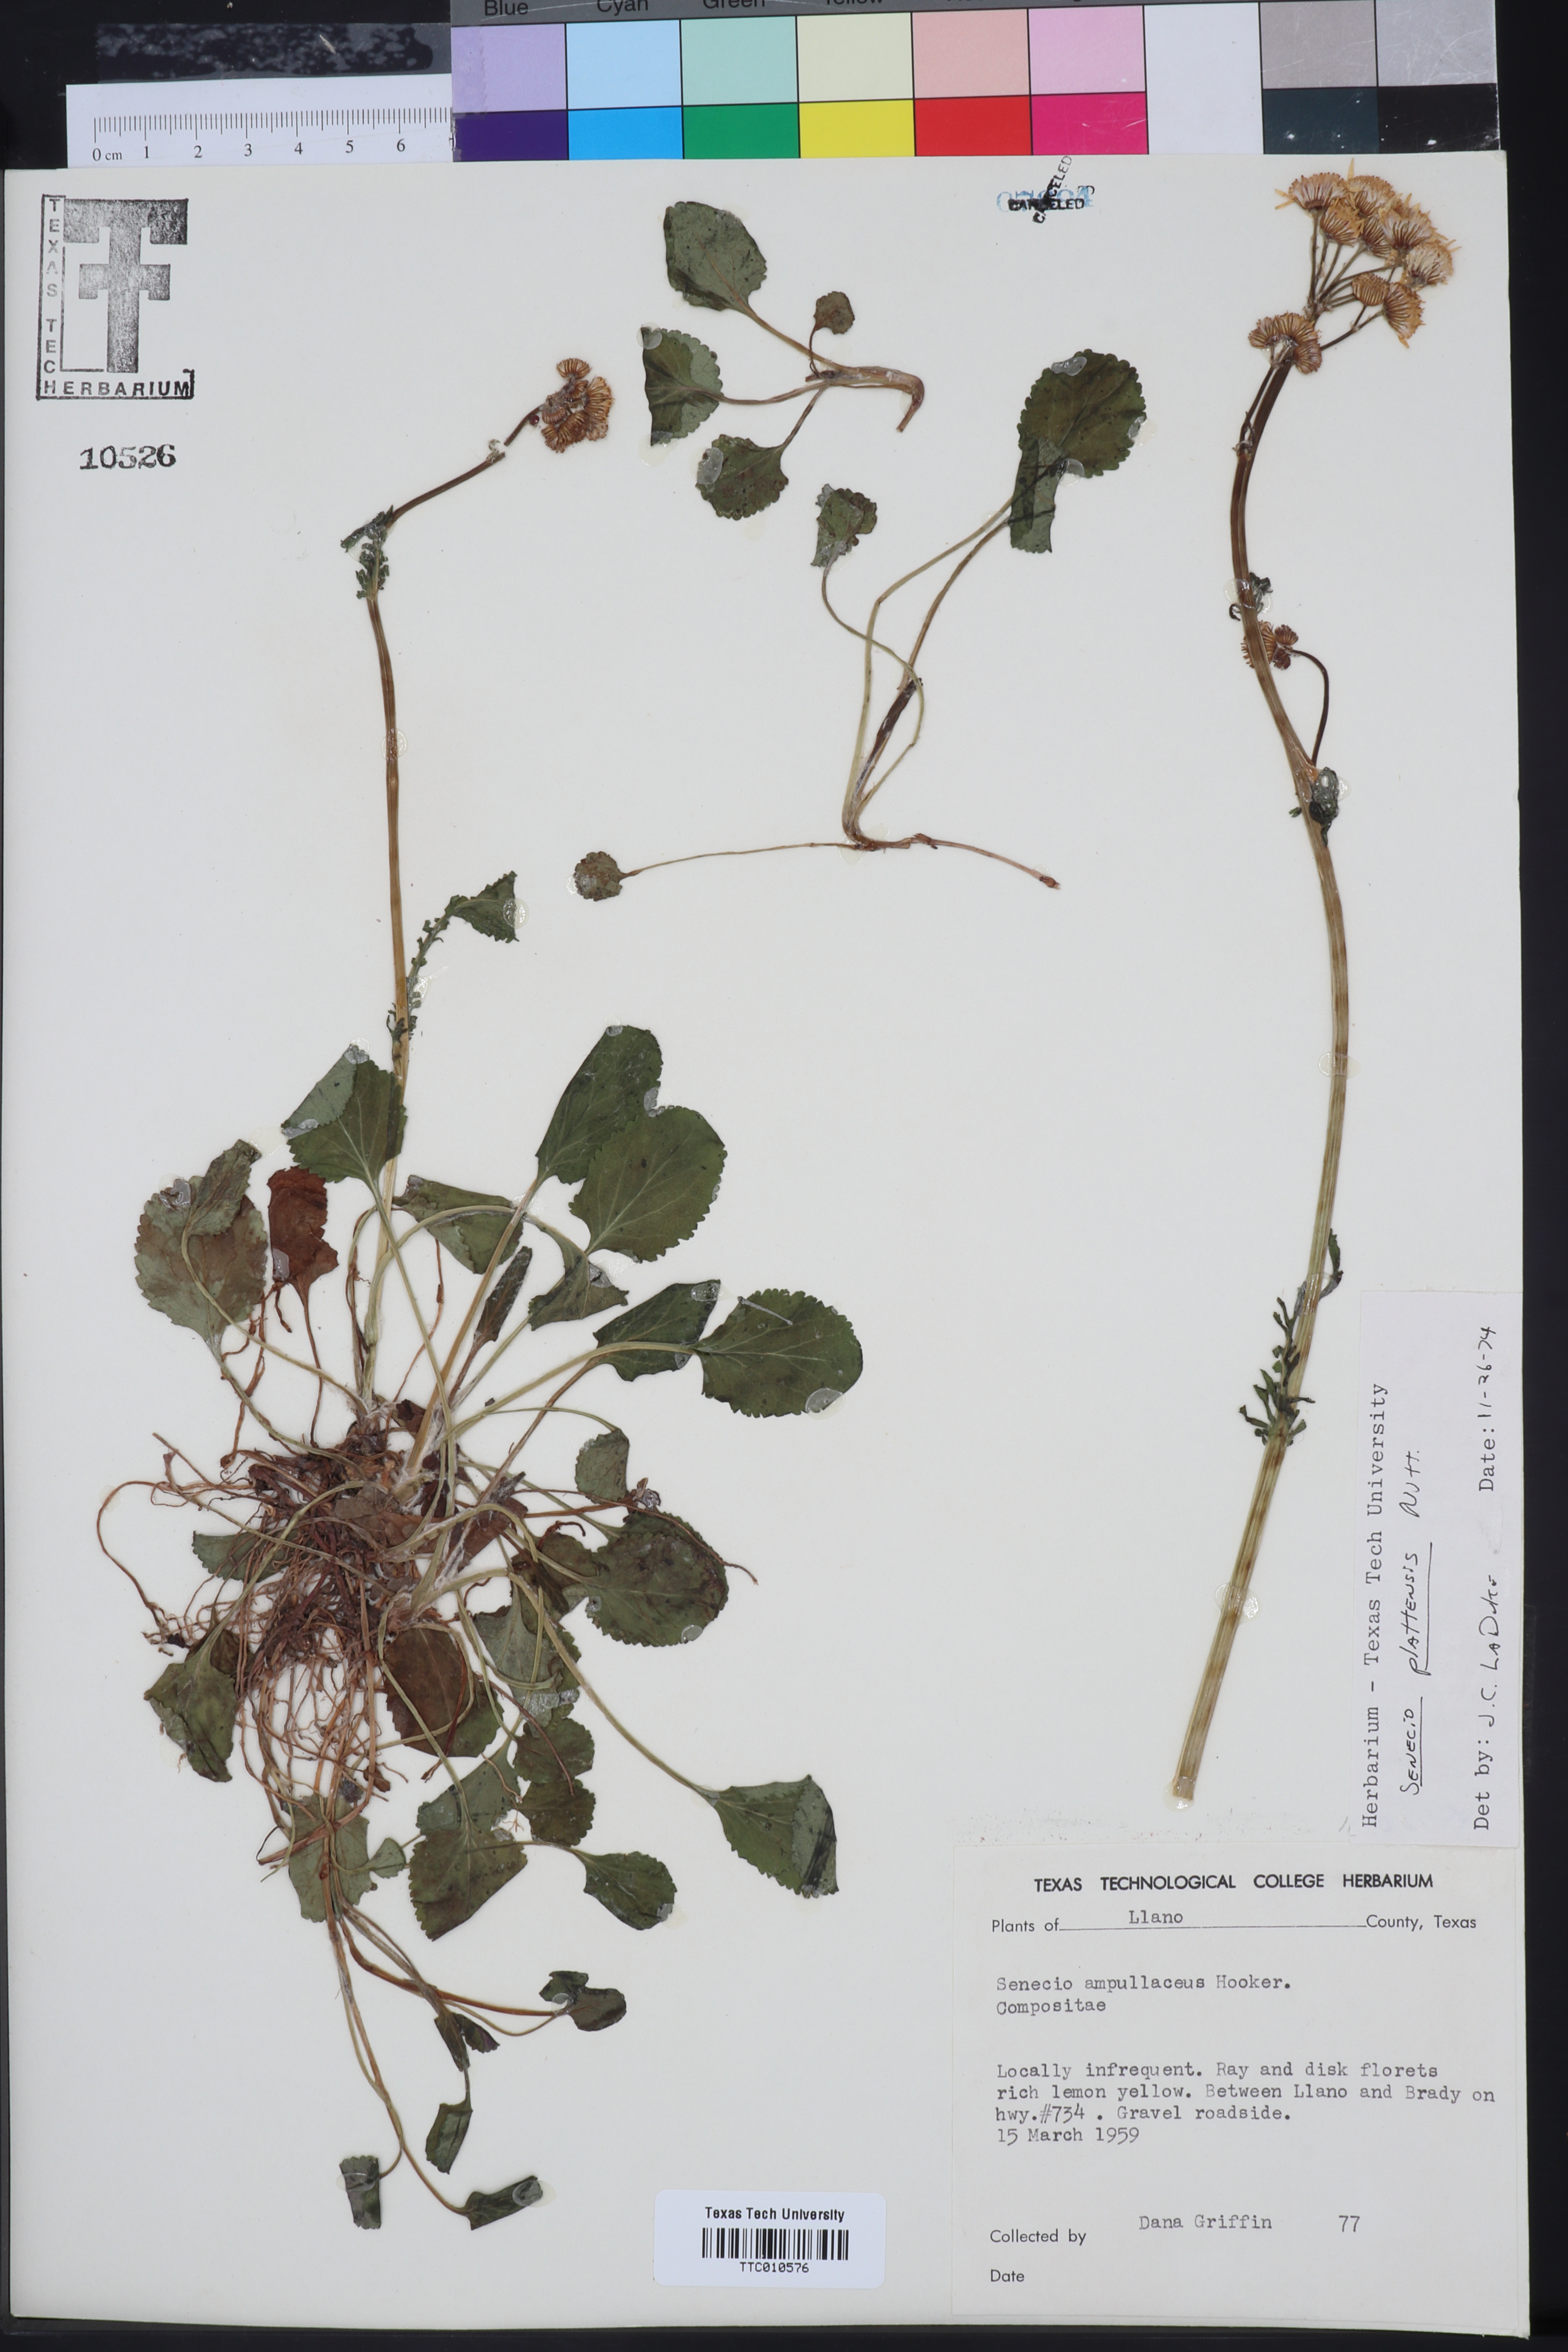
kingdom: Plantae
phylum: Tracheophyta
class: Magnoliopsida
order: Asterales
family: Asteraceae
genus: Packera
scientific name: Packera plattensis
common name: Prairie groundsel
